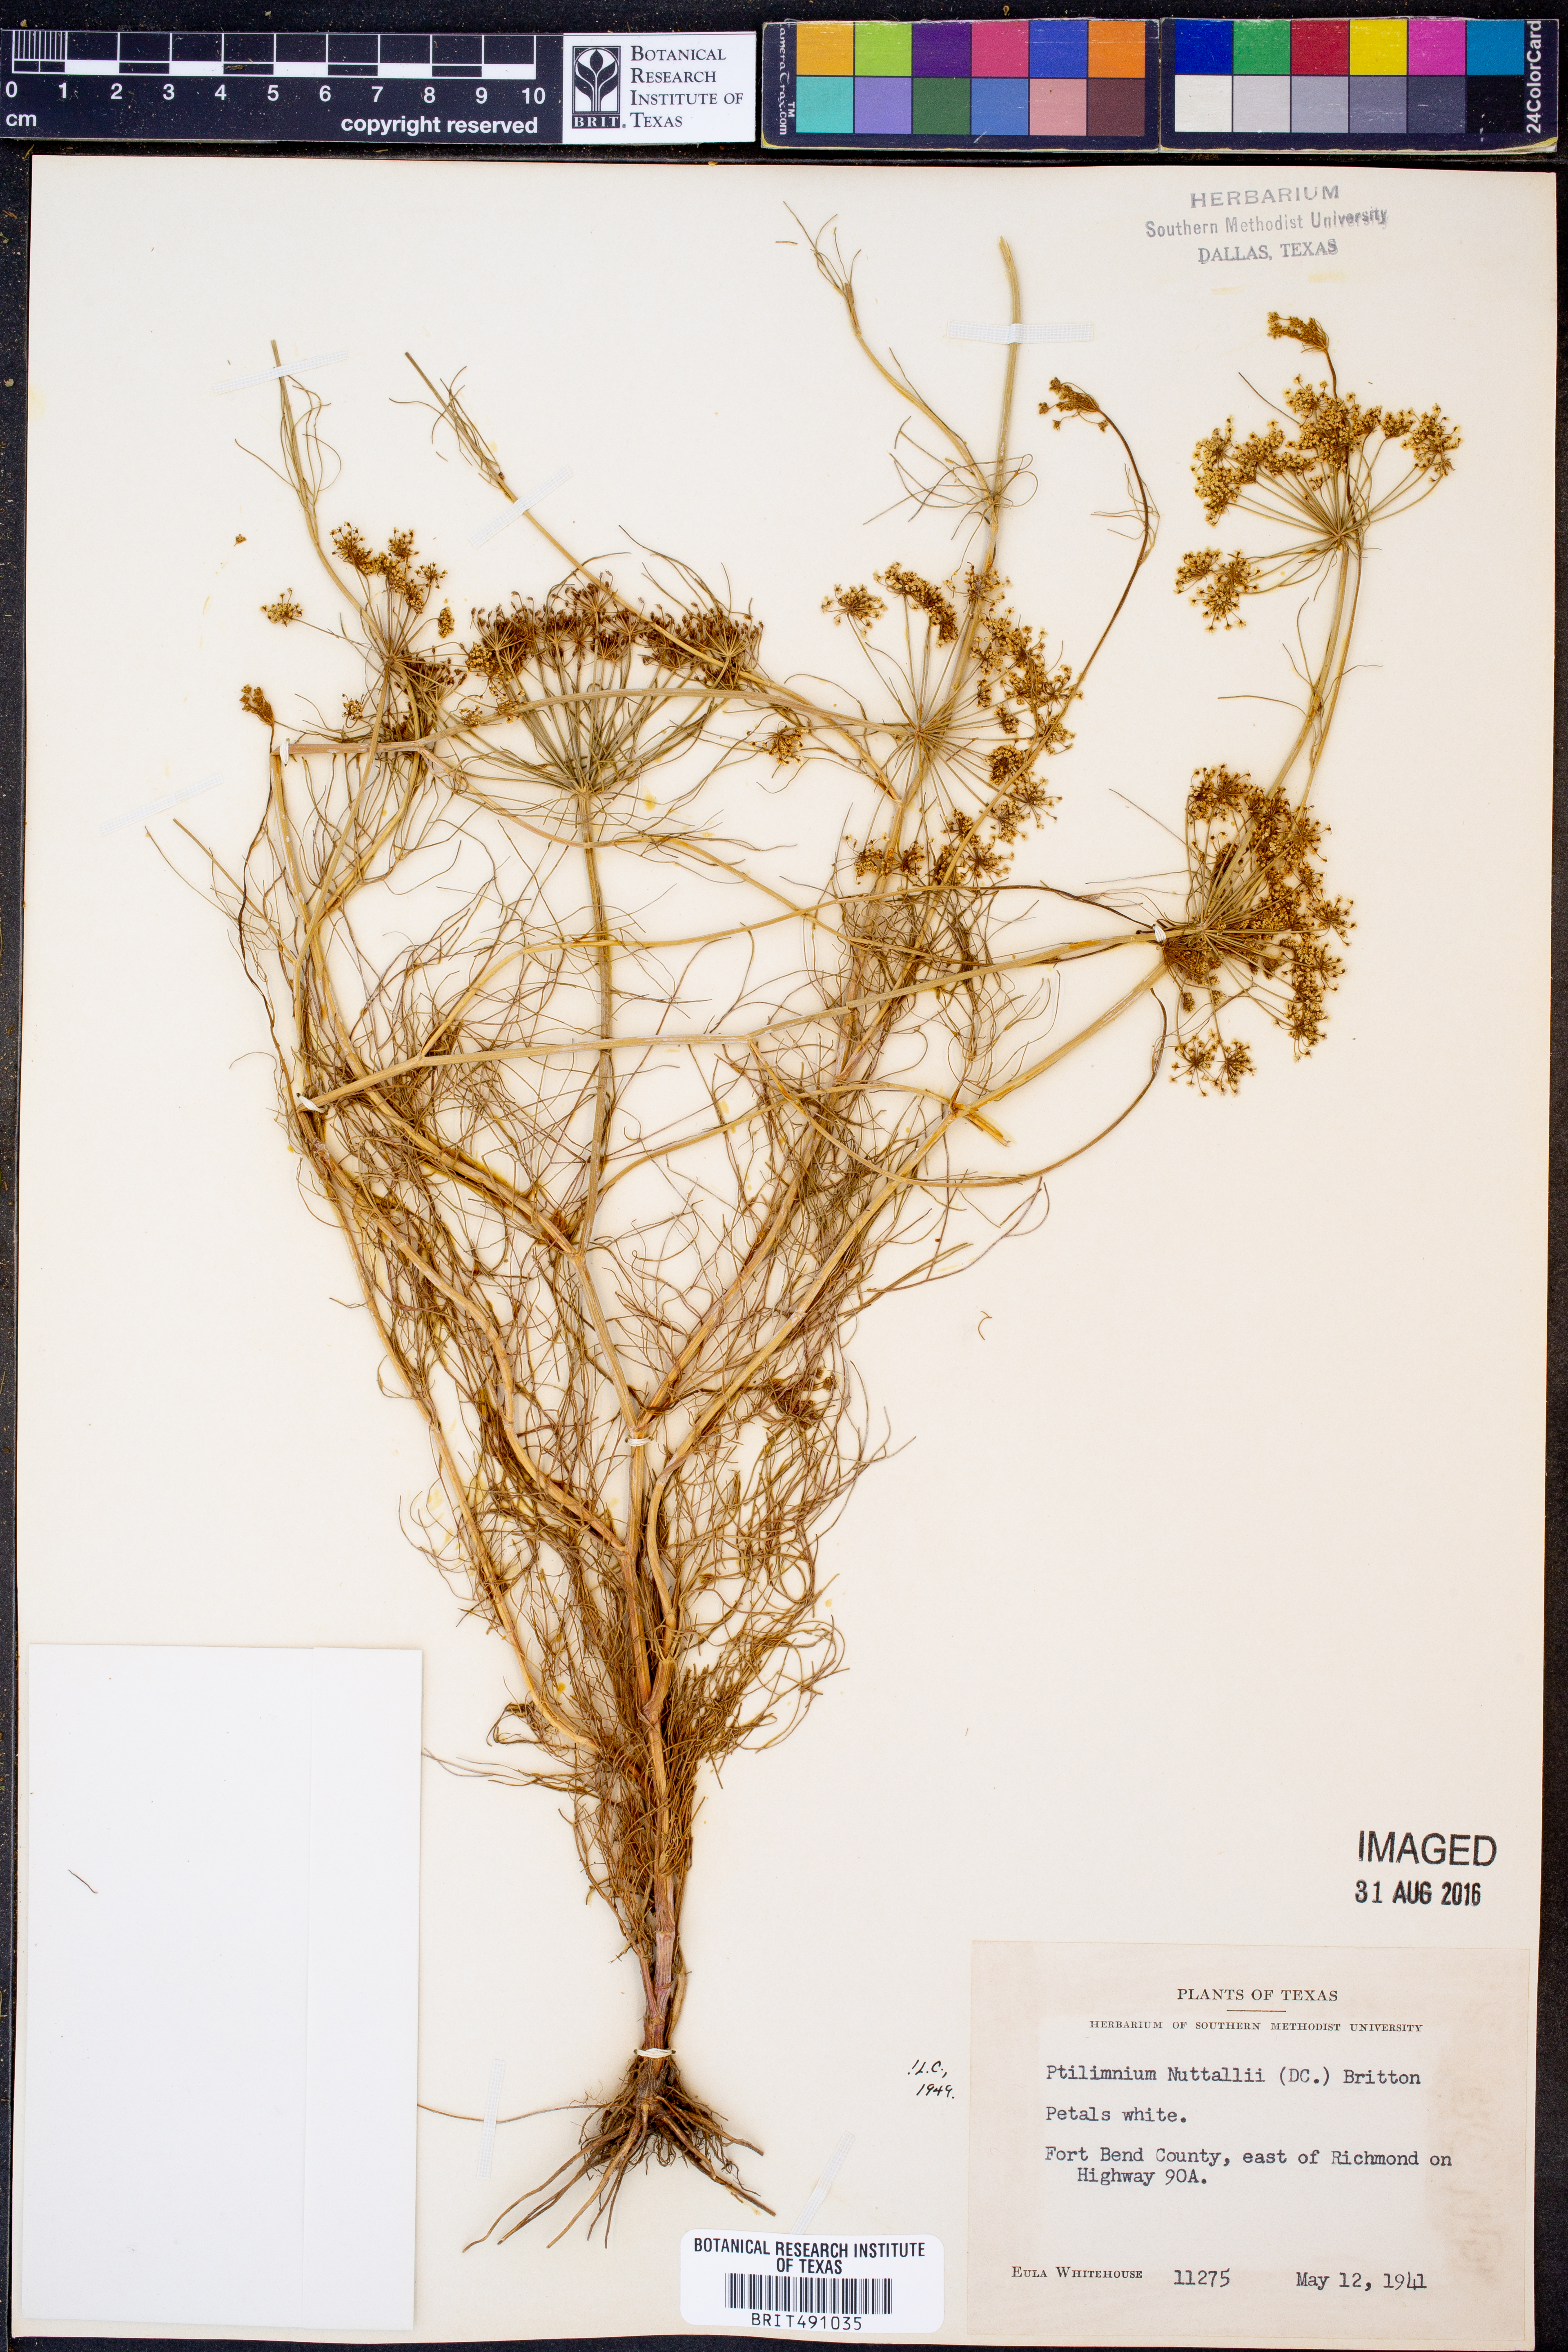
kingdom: Plantae
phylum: Tracheophyta
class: Magnoliopsida
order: Apiales
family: Apiaceae
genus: Ptilimnium
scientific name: Ptilimnium nuttallii
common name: Ozark bishop's-weed
